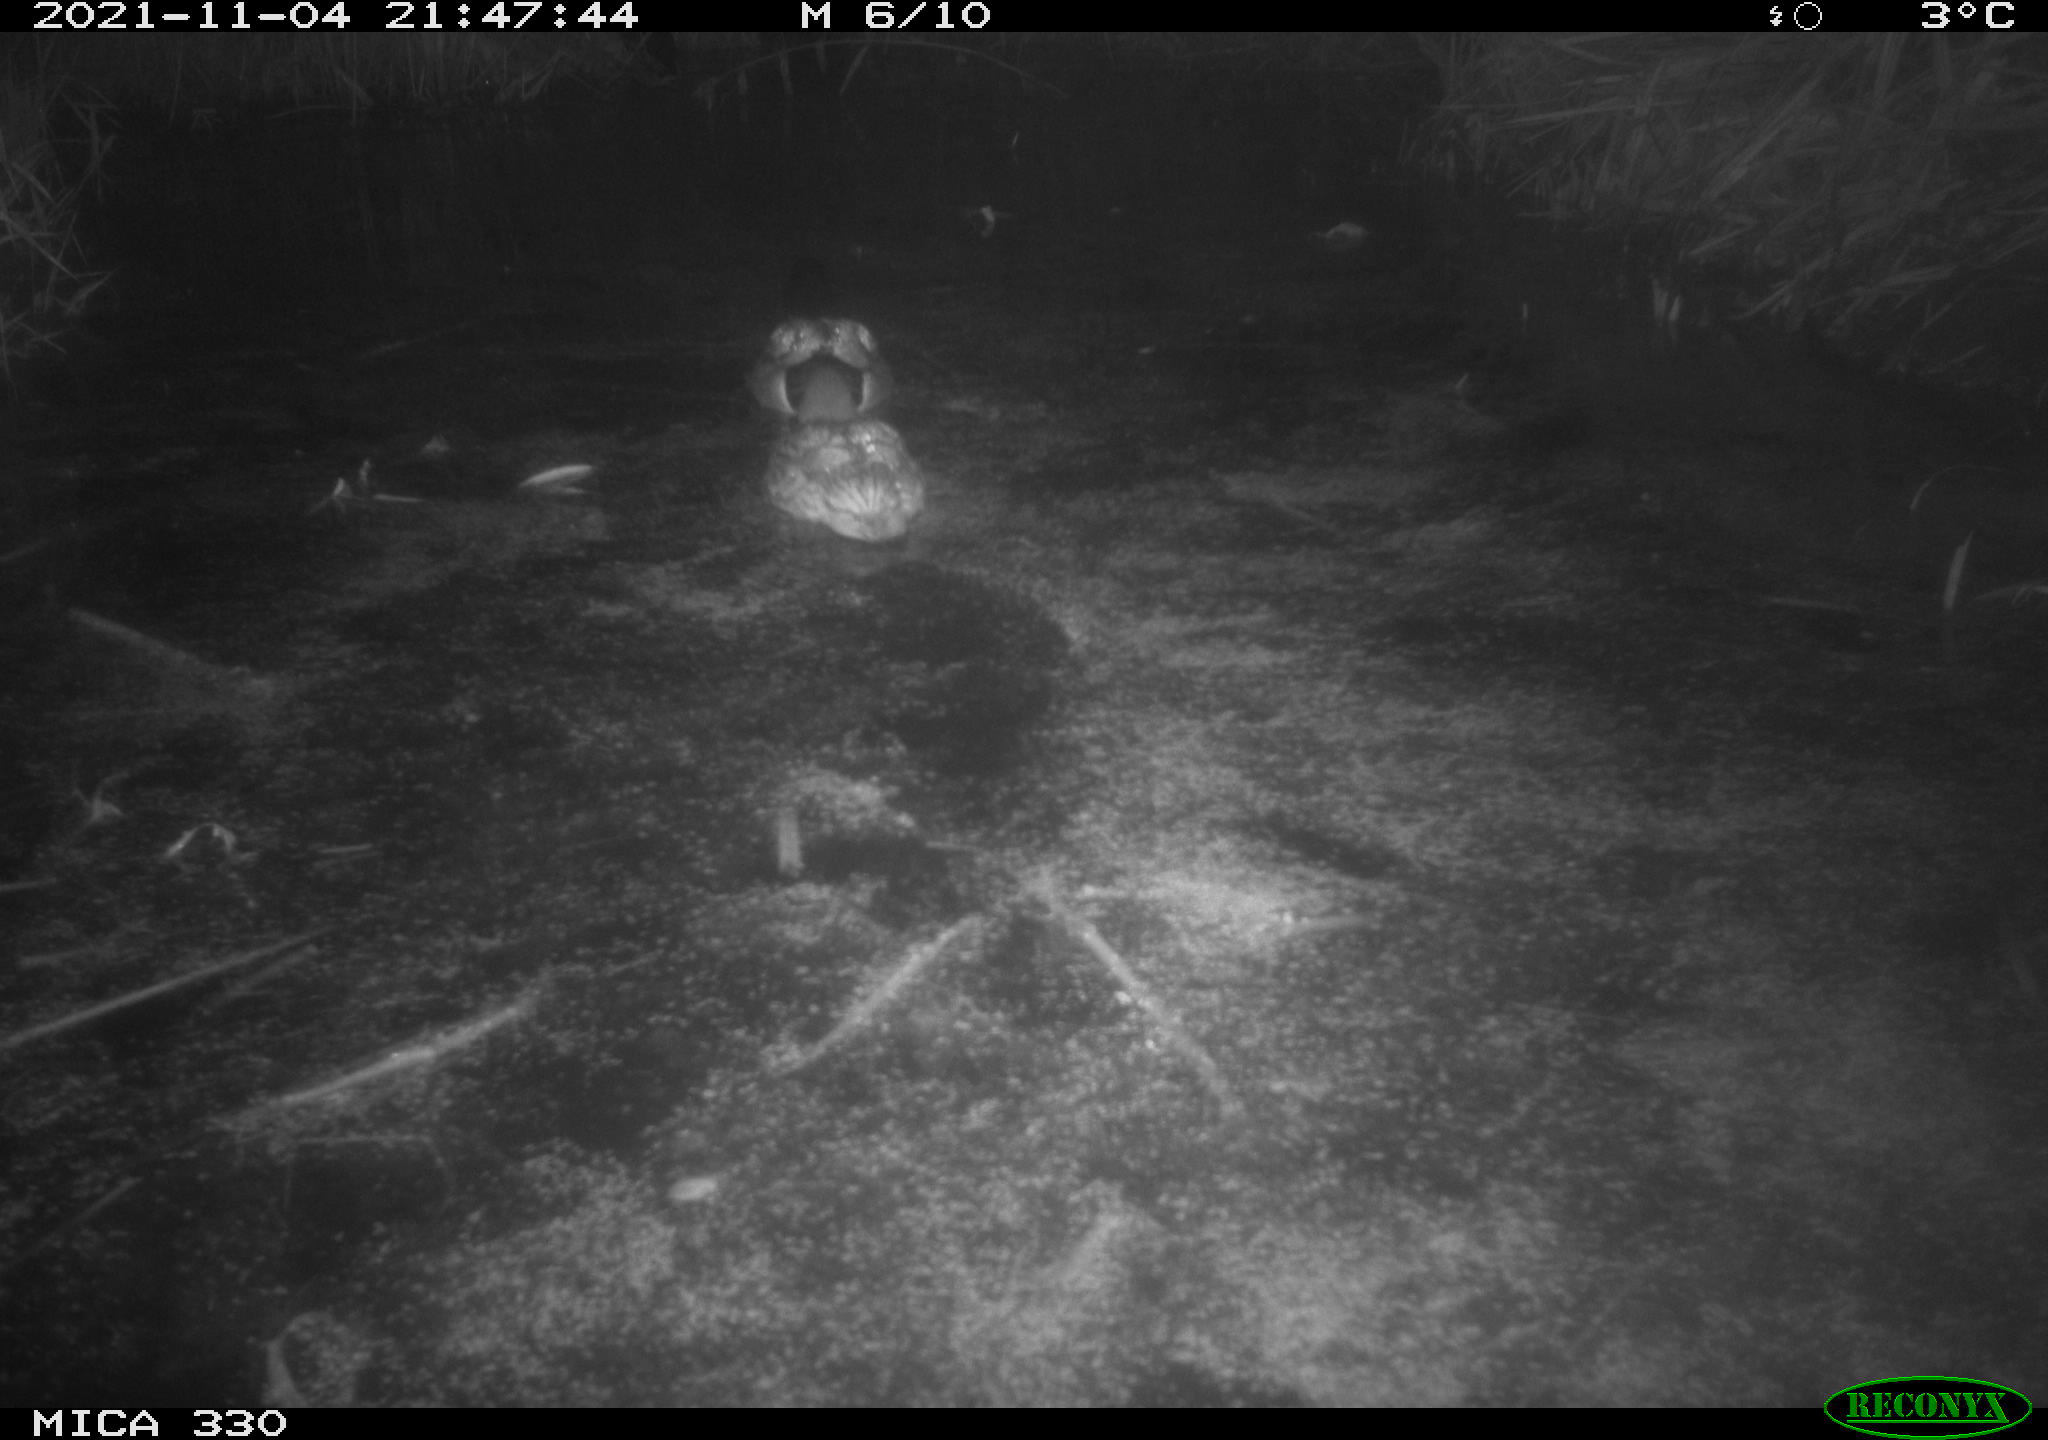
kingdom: Animalia
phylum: Chordata
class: Aves
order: Anseriformes
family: Anatidae
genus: Anas
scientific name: Anas platyrhynchos
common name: Mallard
